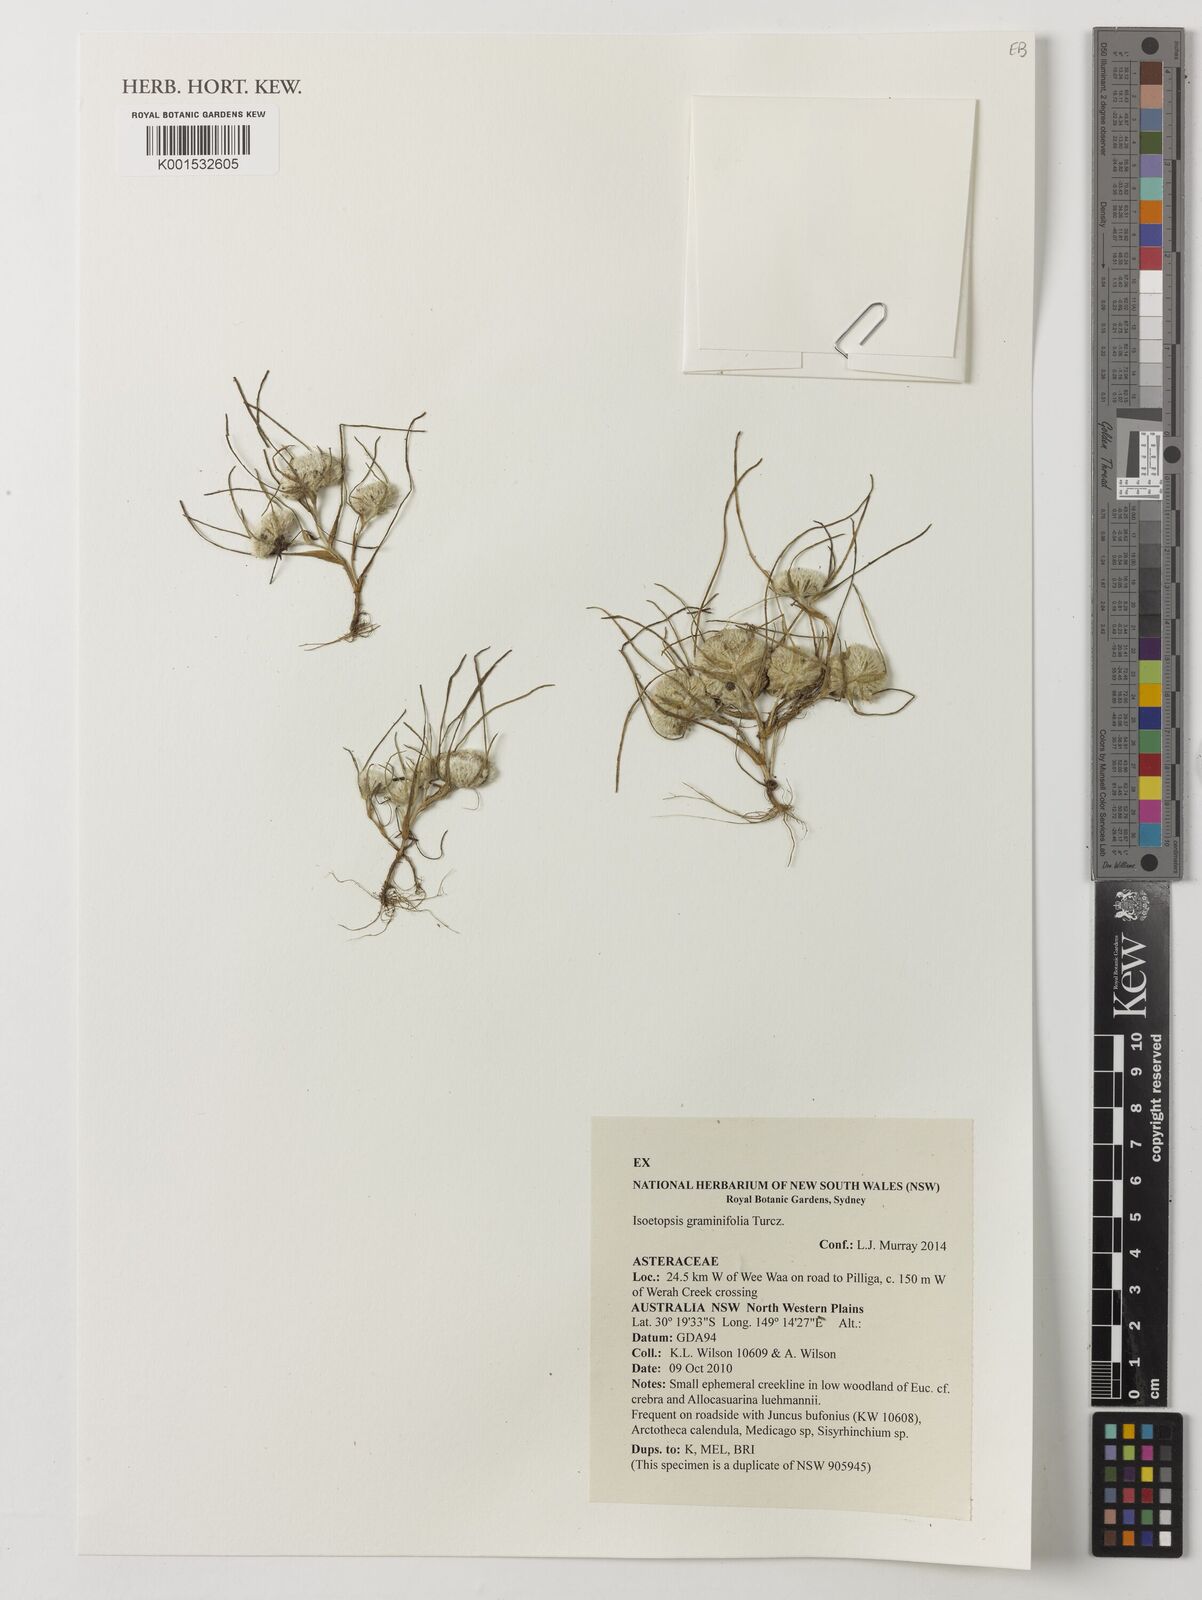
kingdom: Plantae
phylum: Tracheophyta
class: Magnoliopsida
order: Asterales
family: Asteraceae
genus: Isoetopsis
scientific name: Isoetopsis graminifolia
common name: Grass-cushion
